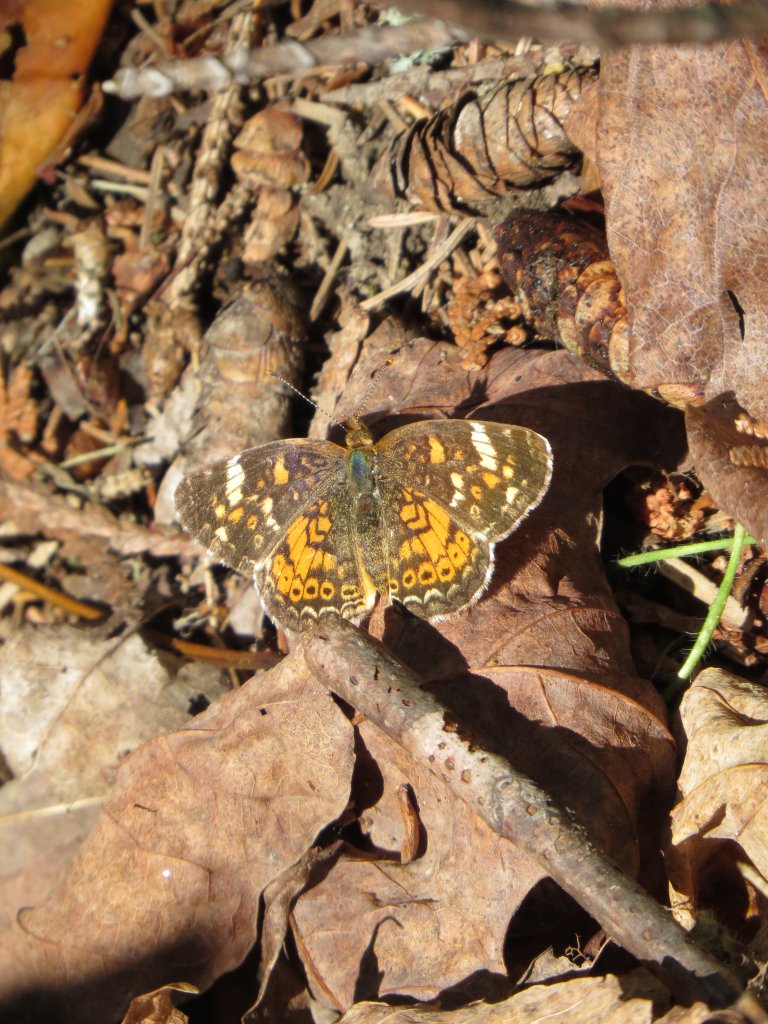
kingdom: Animalia
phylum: Arthropoda
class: Insecta
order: Lepidoptera
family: Nymphalidae
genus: Phyciodes
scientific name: Phyciodes tharos
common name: Pearl Crescent
